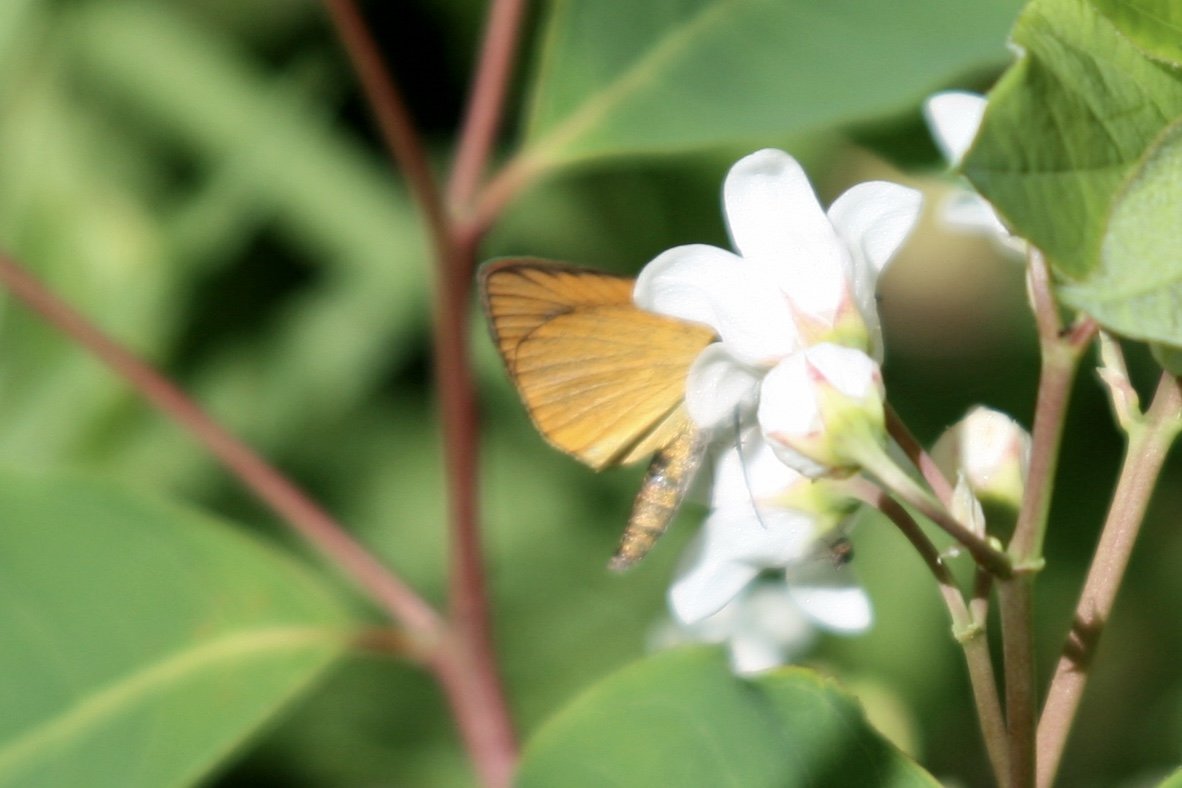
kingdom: Animalia
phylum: Arthropoda
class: Insecta
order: Lepidoptera
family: Hesperiidae
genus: Thymelicus
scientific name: Thymelicus lineola
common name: European Skipper
